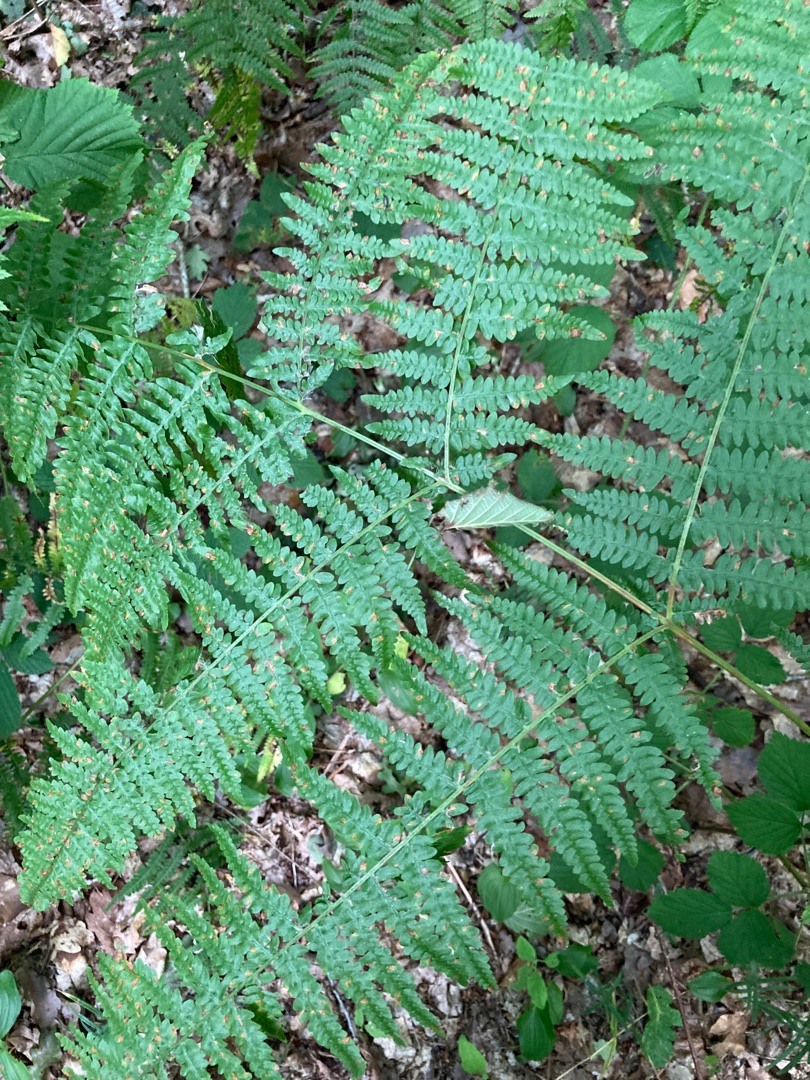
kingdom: Plantae
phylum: Tracheophyta
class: Polypodiopsida
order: Polypodiales
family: Dennstaedtiaceae
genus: Pteridium
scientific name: Pteridium aquilinum
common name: Ørnebregne
